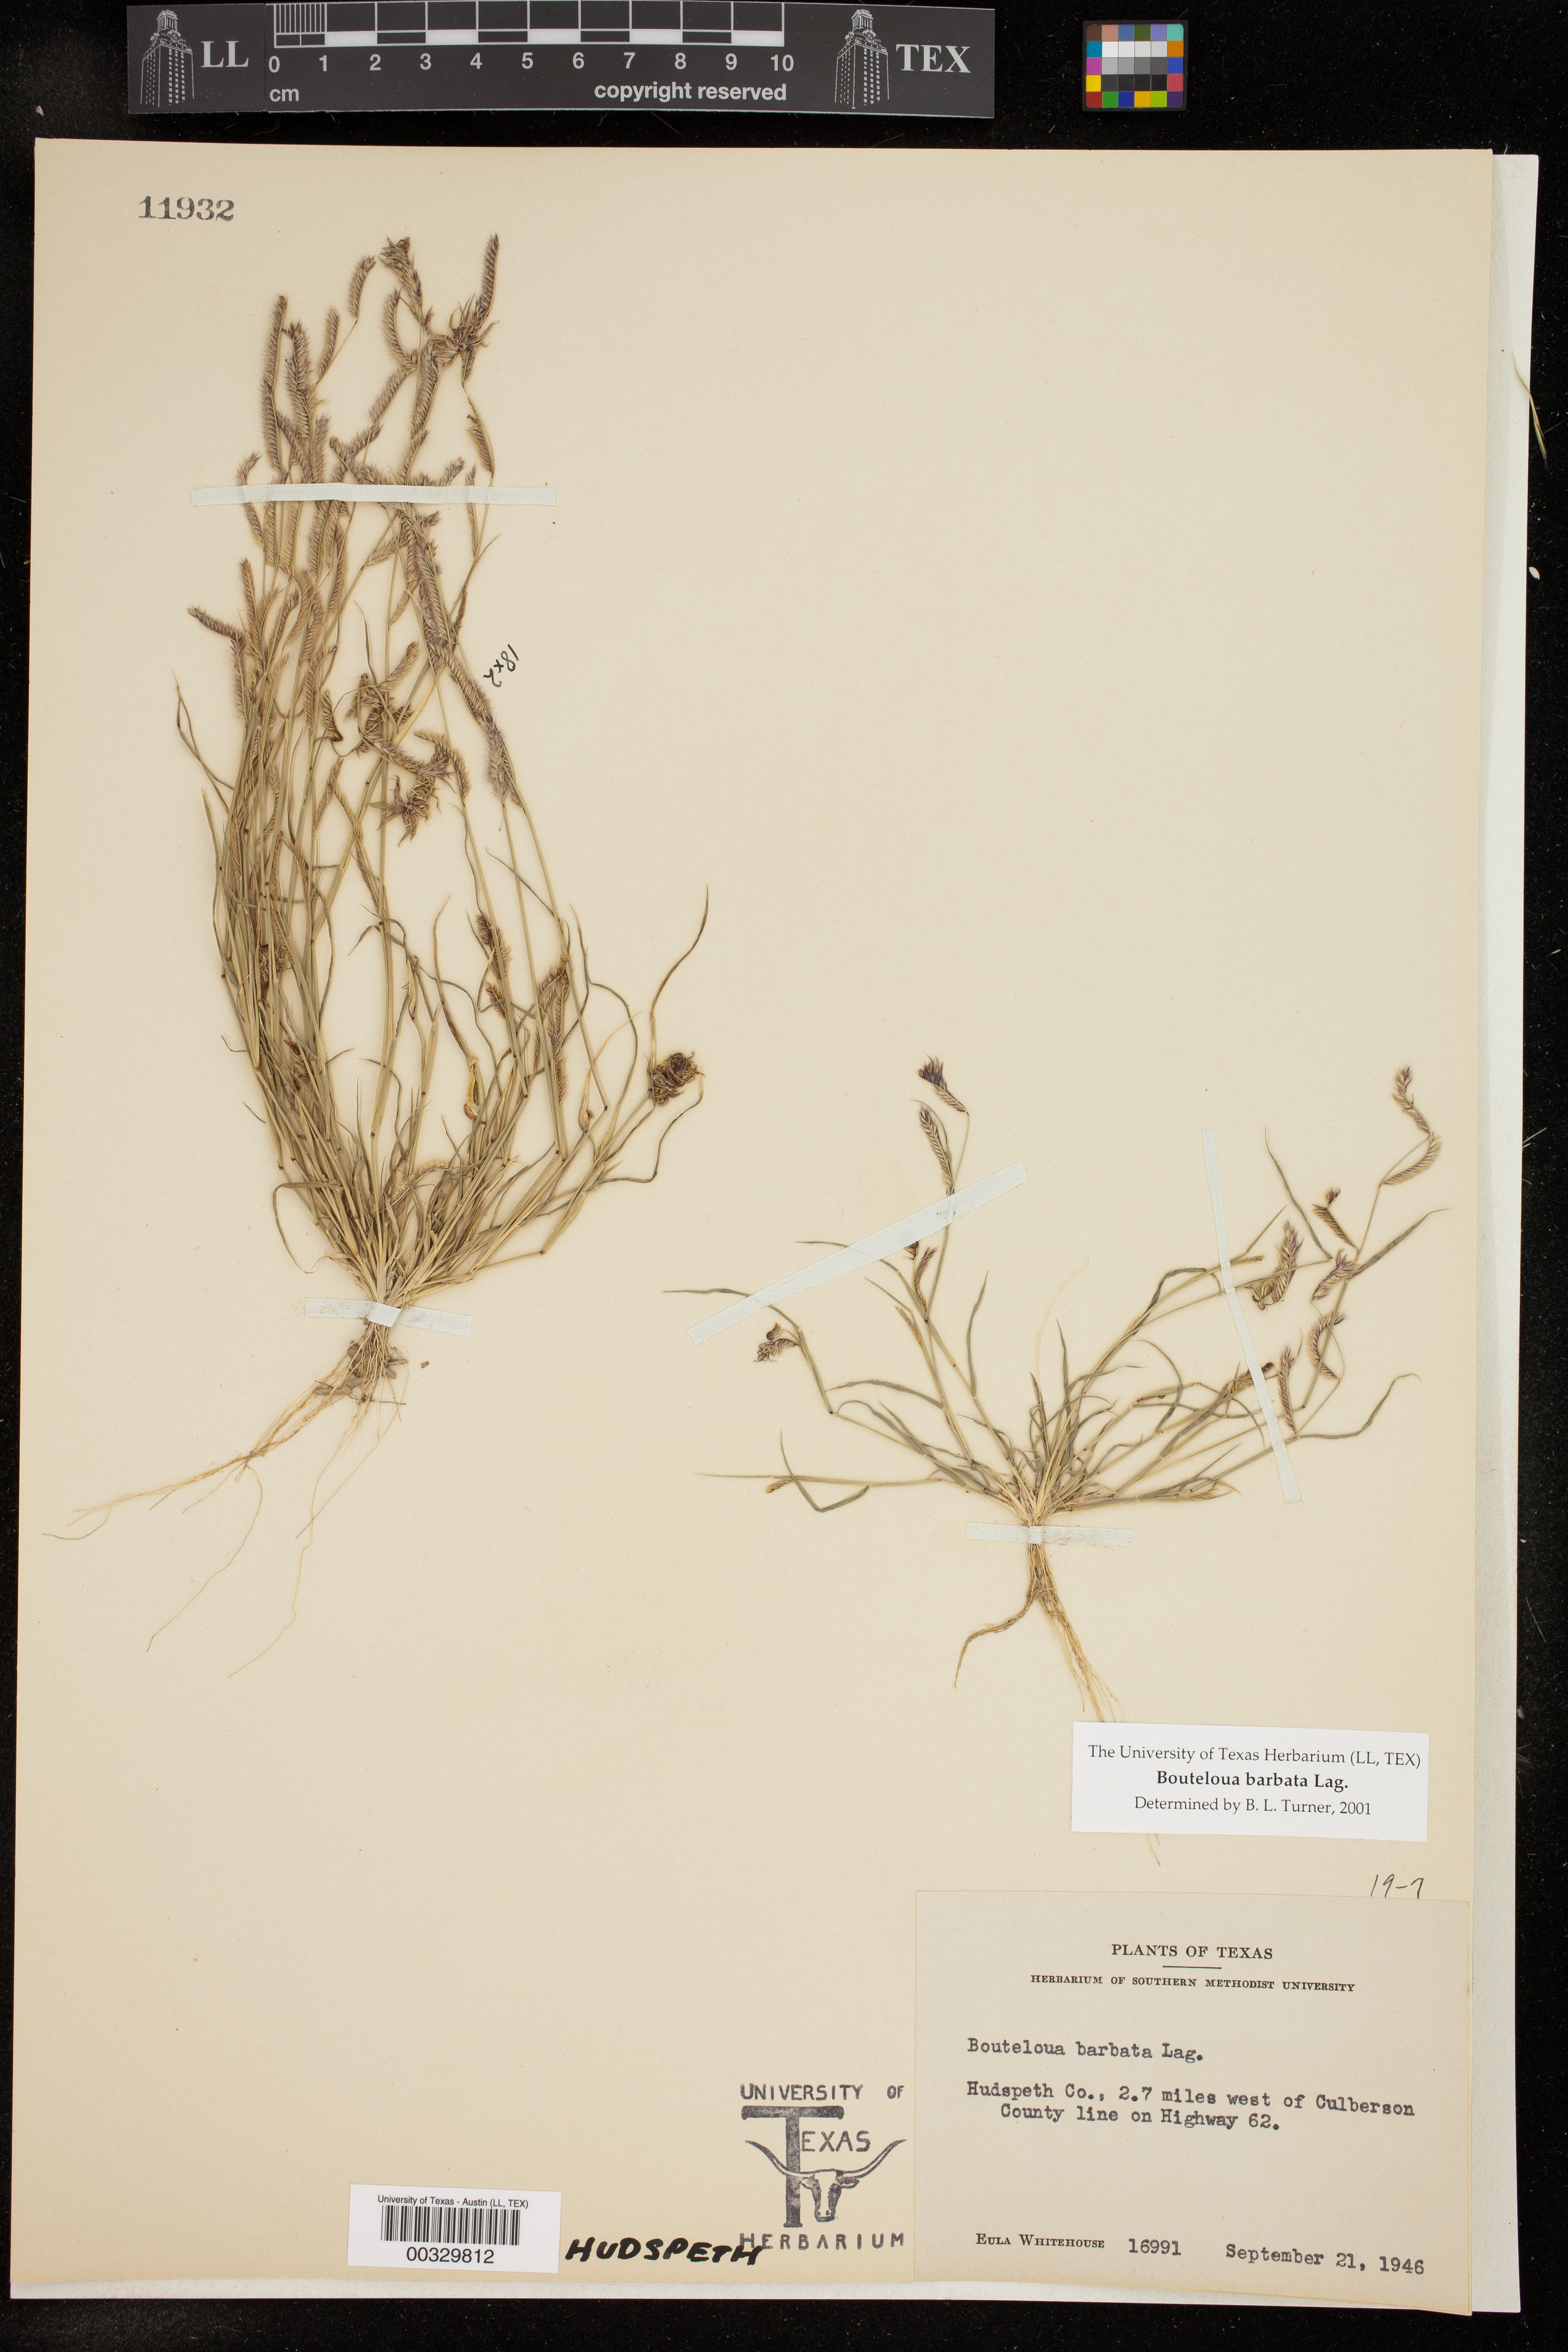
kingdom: Plantae
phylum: Tracheophyta
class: Liliopsida
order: Poales
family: Poaceae
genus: Bouteloua
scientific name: Bouteloua barbata
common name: Six-weeks grama
